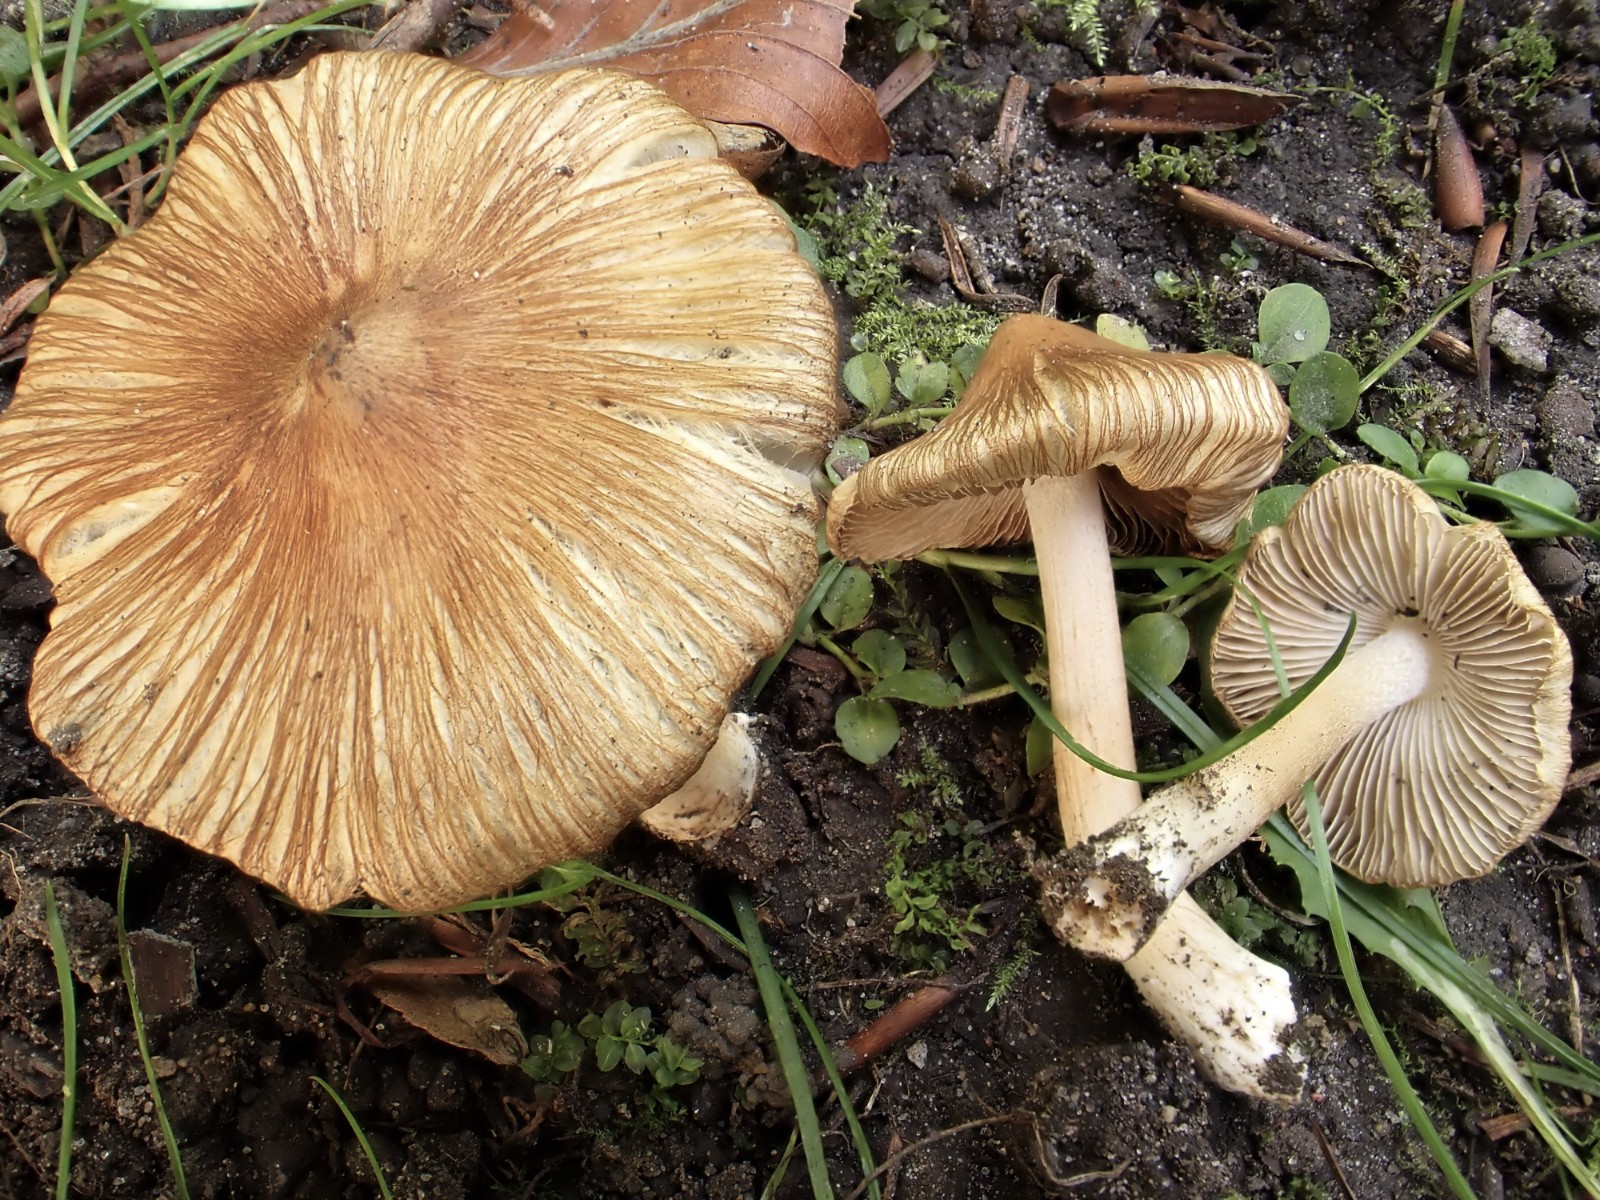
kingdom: Fungi
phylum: Basidiomycota
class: Agaricomycetes
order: Agaricales
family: Inocybaceae
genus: Pseudosperma
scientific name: Pseudosperma umbrinellum
